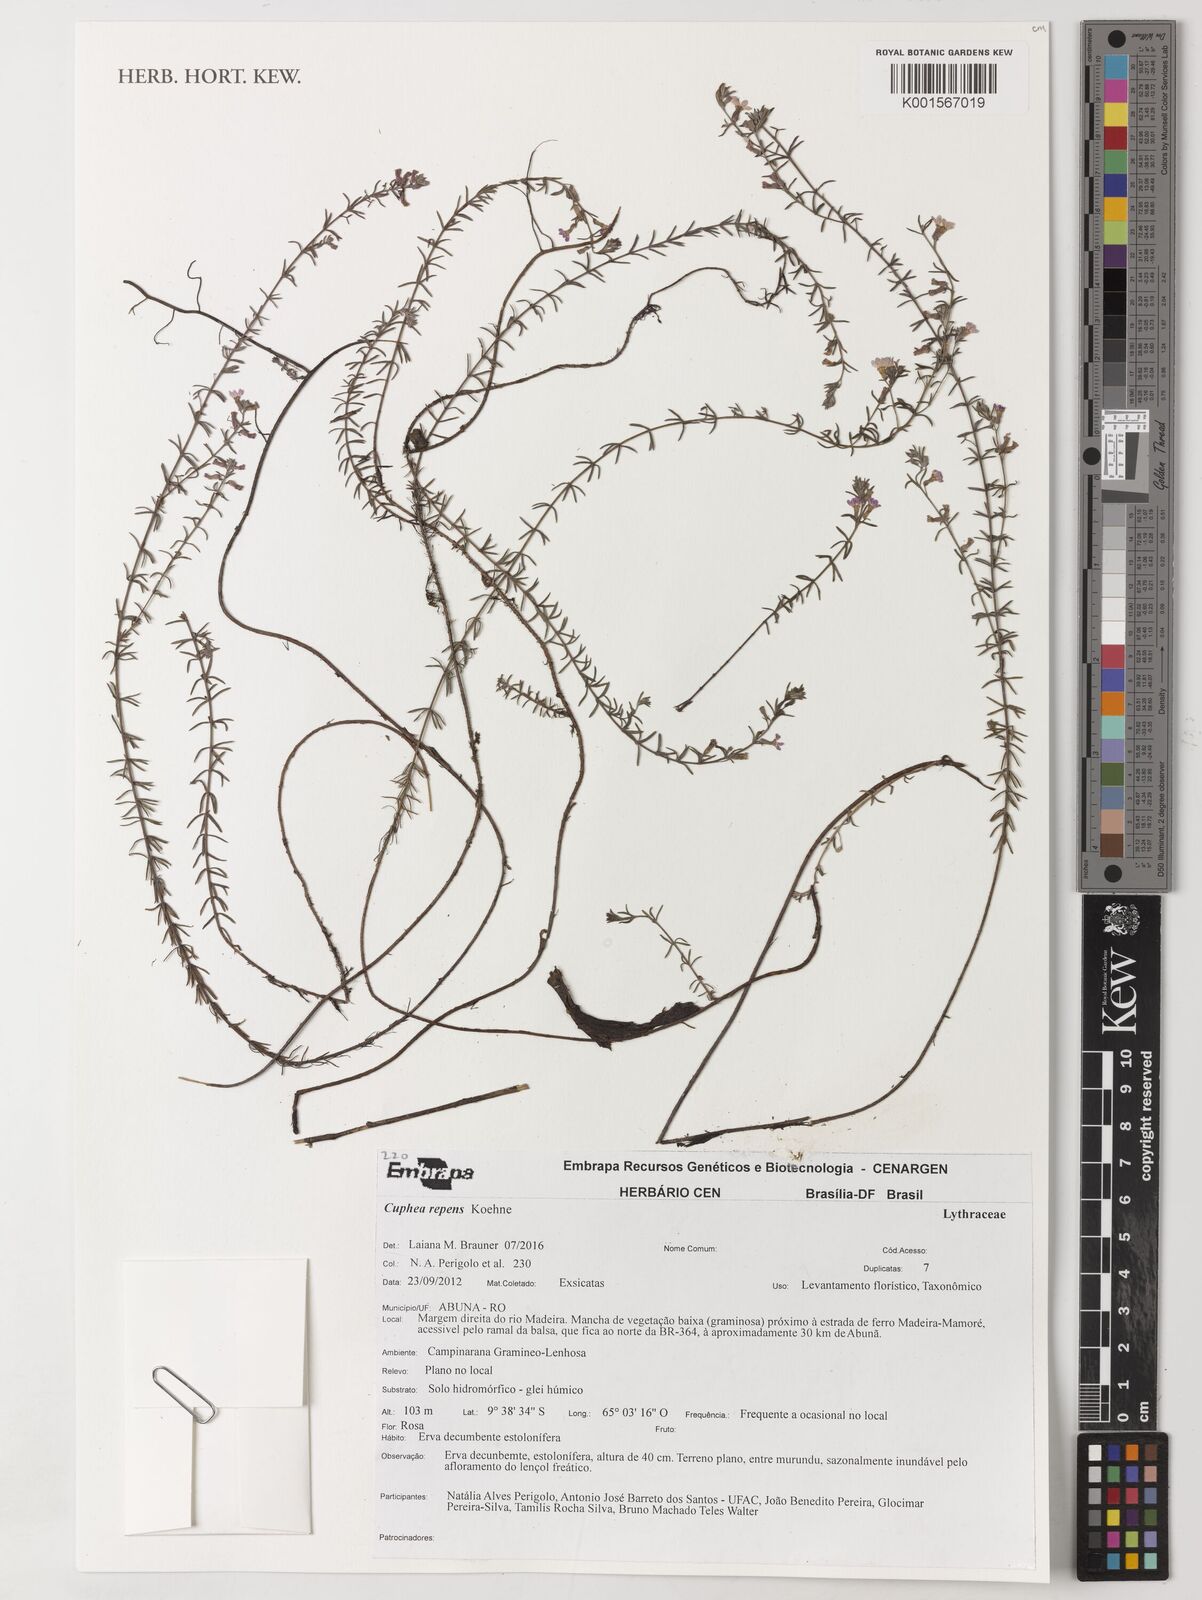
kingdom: Plantae
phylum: Tracheophyta
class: Magnoliopsida
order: Myrtales
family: Lythraceae
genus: Cuphea
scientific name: Cuphea repens
